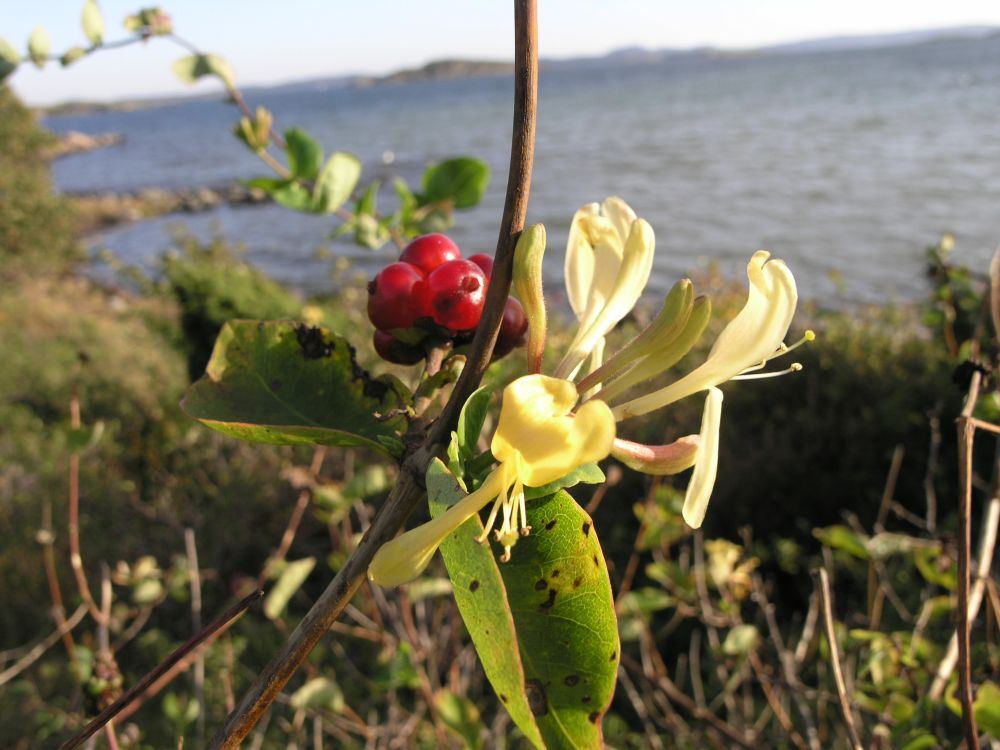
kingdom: Plantae
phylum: Tracheophyta
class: Magnoliopsida
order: Dipsacales
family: Caprifoliaceae
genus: Lonicera
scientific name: Lonicera periclymenum
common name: European honeysuckle
